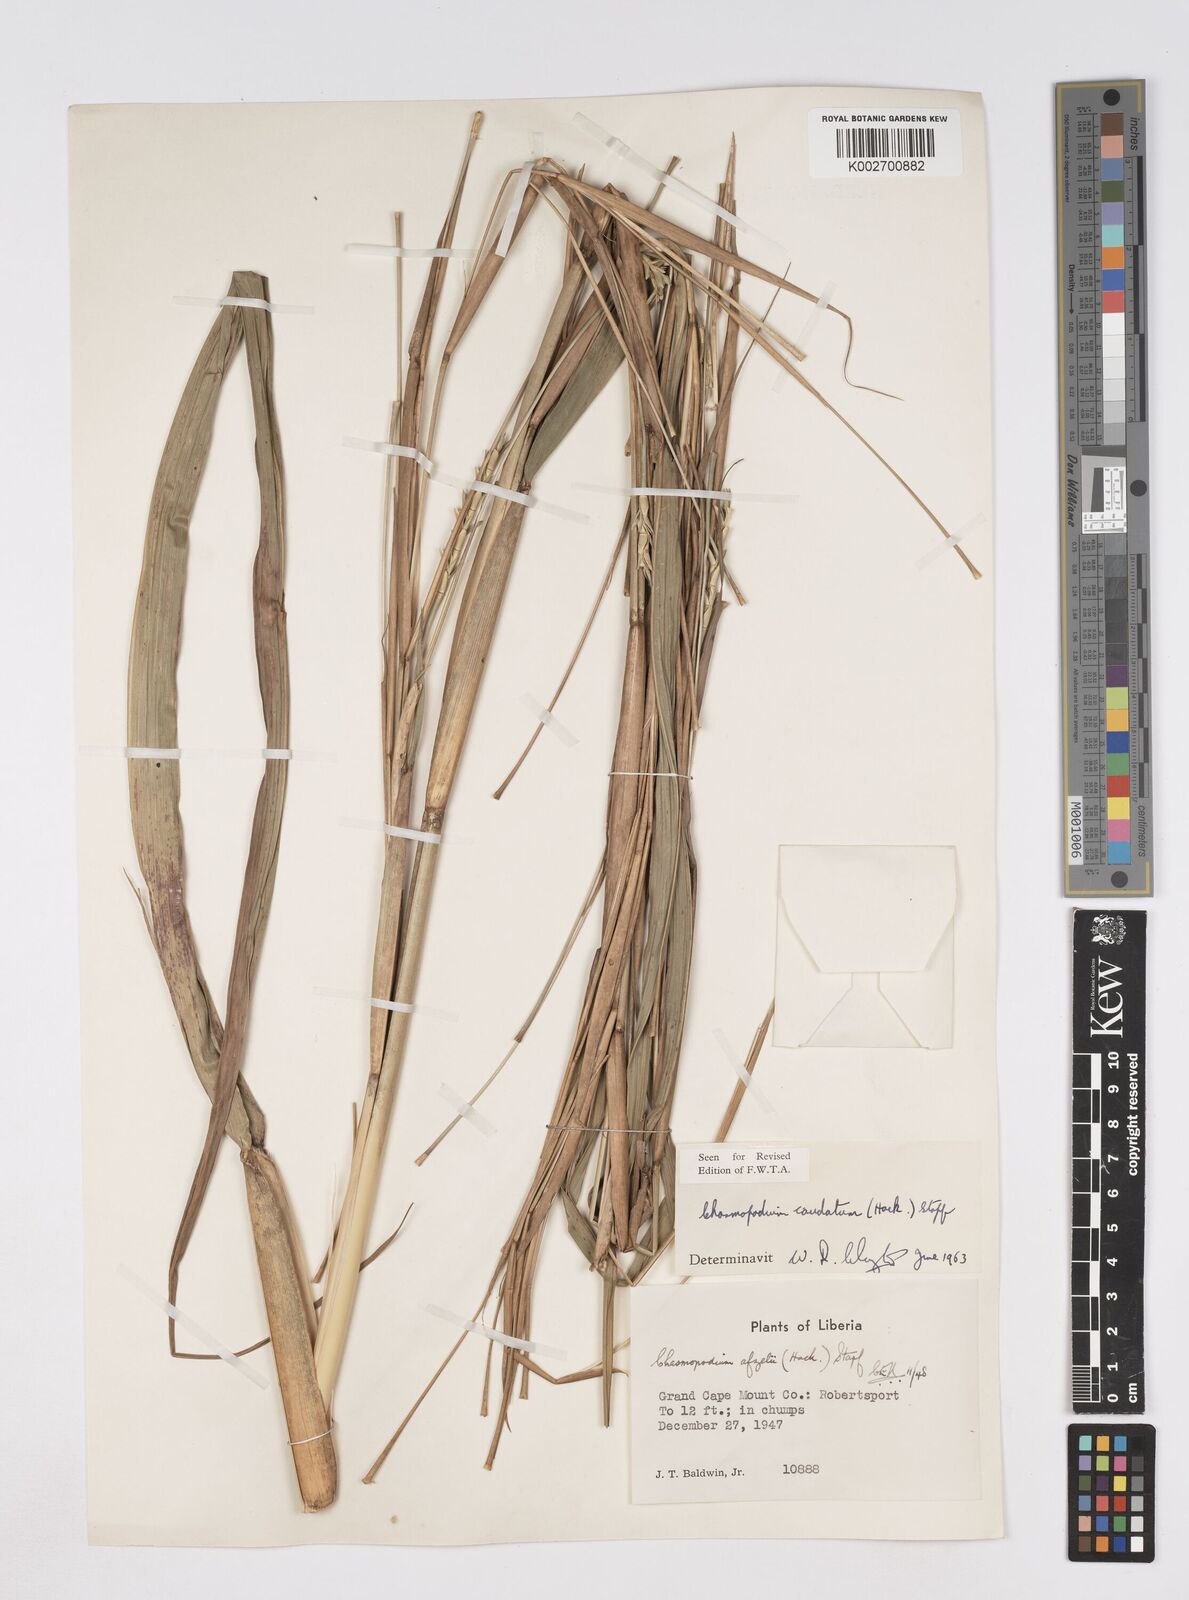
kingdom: Plantae
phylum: Tracheophyta
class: Liliopsida
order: Poales
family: Poaceae
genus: Chasmopodium
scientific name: Chasmopodium caudatum
